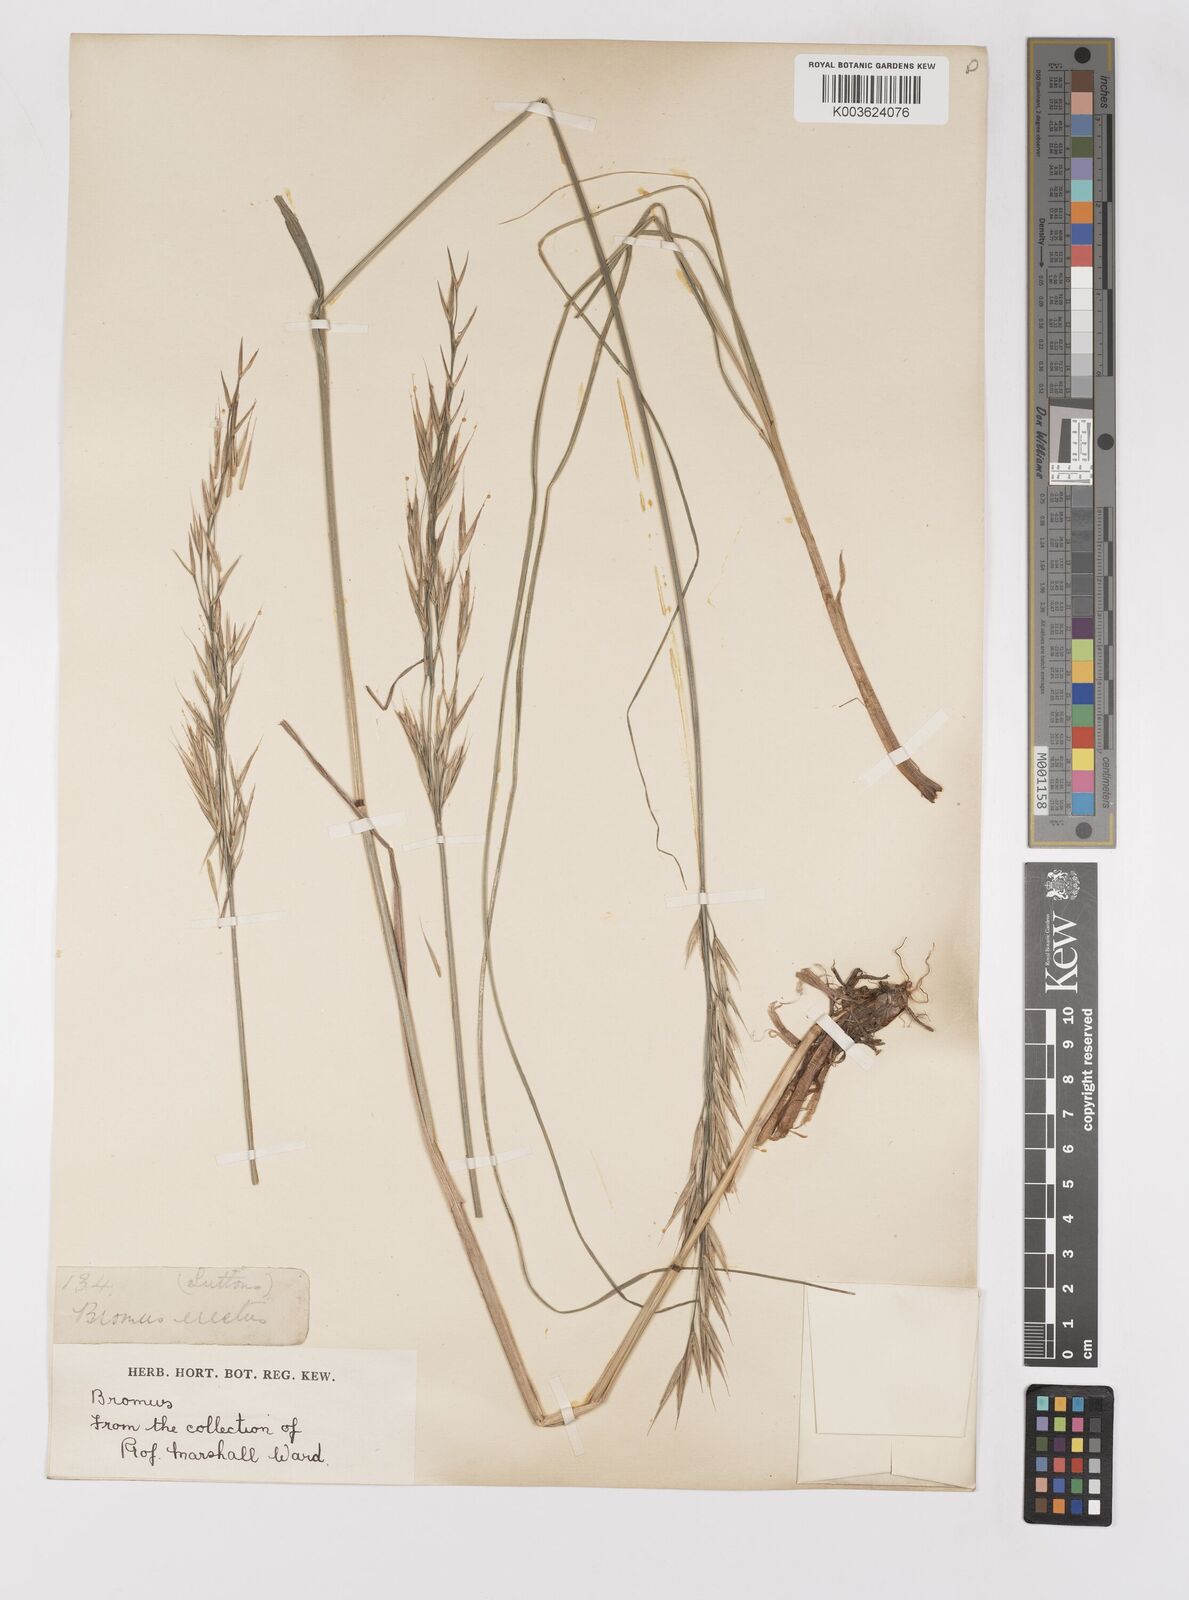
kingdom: Plantae
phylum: Tracheophyta
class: Liliopsida
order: Poales
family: Poaceae
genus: Bromus
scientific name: Bromus erectus
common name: Erect brome
